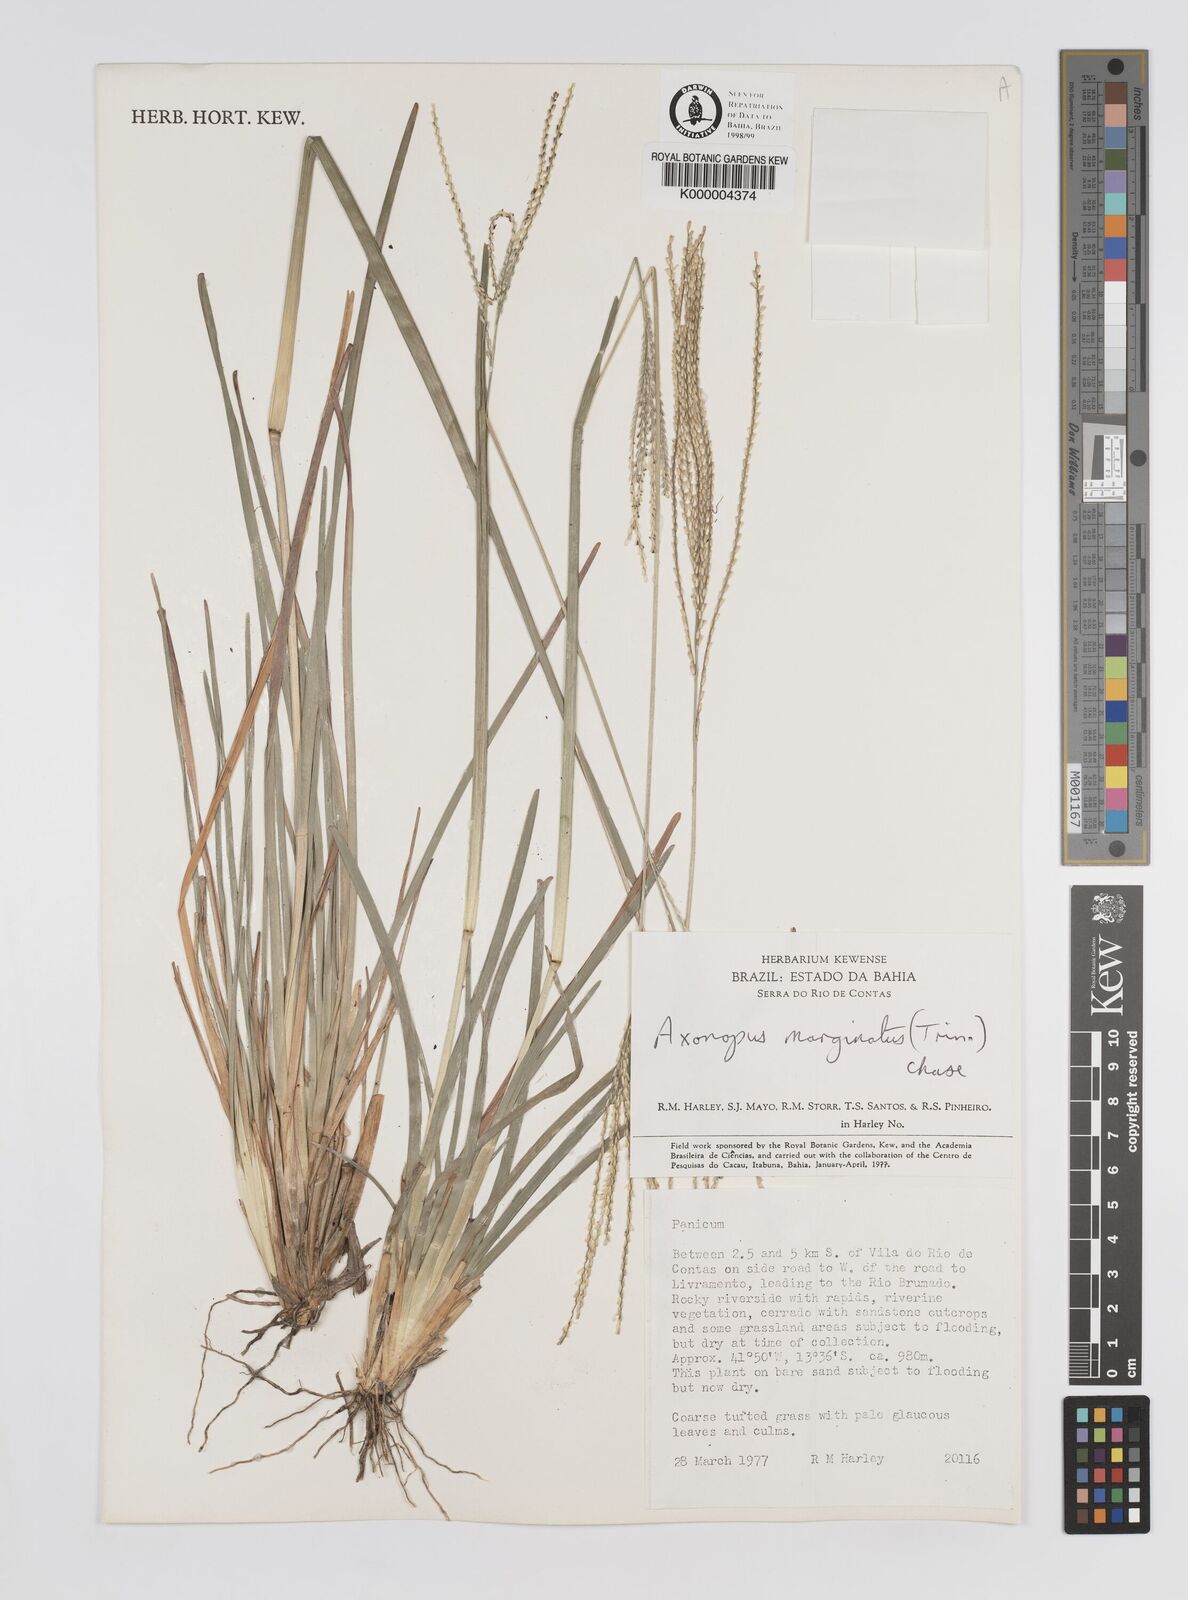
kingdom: Plantae
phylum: Tracheophyta
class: Liliopsida
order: Poales
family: Poaceae
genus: Axonopus
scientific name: Axonopus
